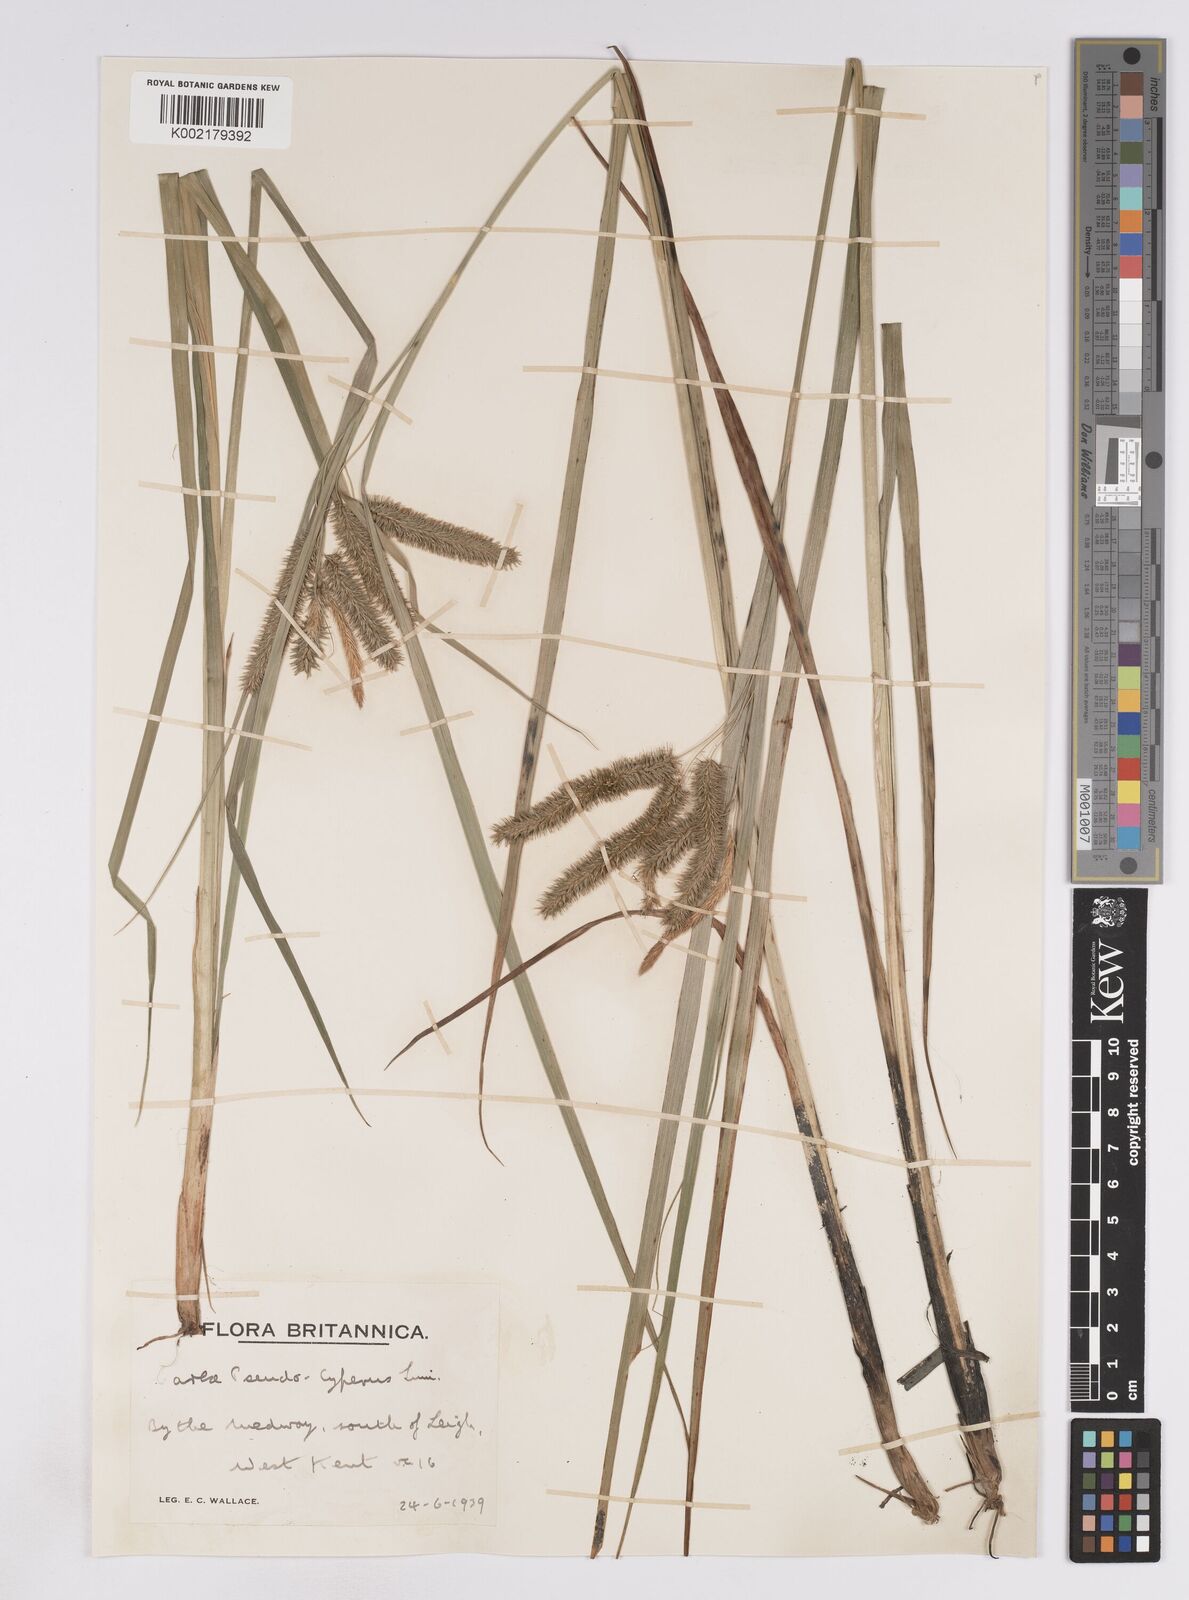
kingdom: Plantae
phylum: Tracheophyta
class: Liliopsida
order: Poales
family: Cyperaceae
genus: Carex
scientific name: Carex pseudocyperus
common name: Cyperus sedge
